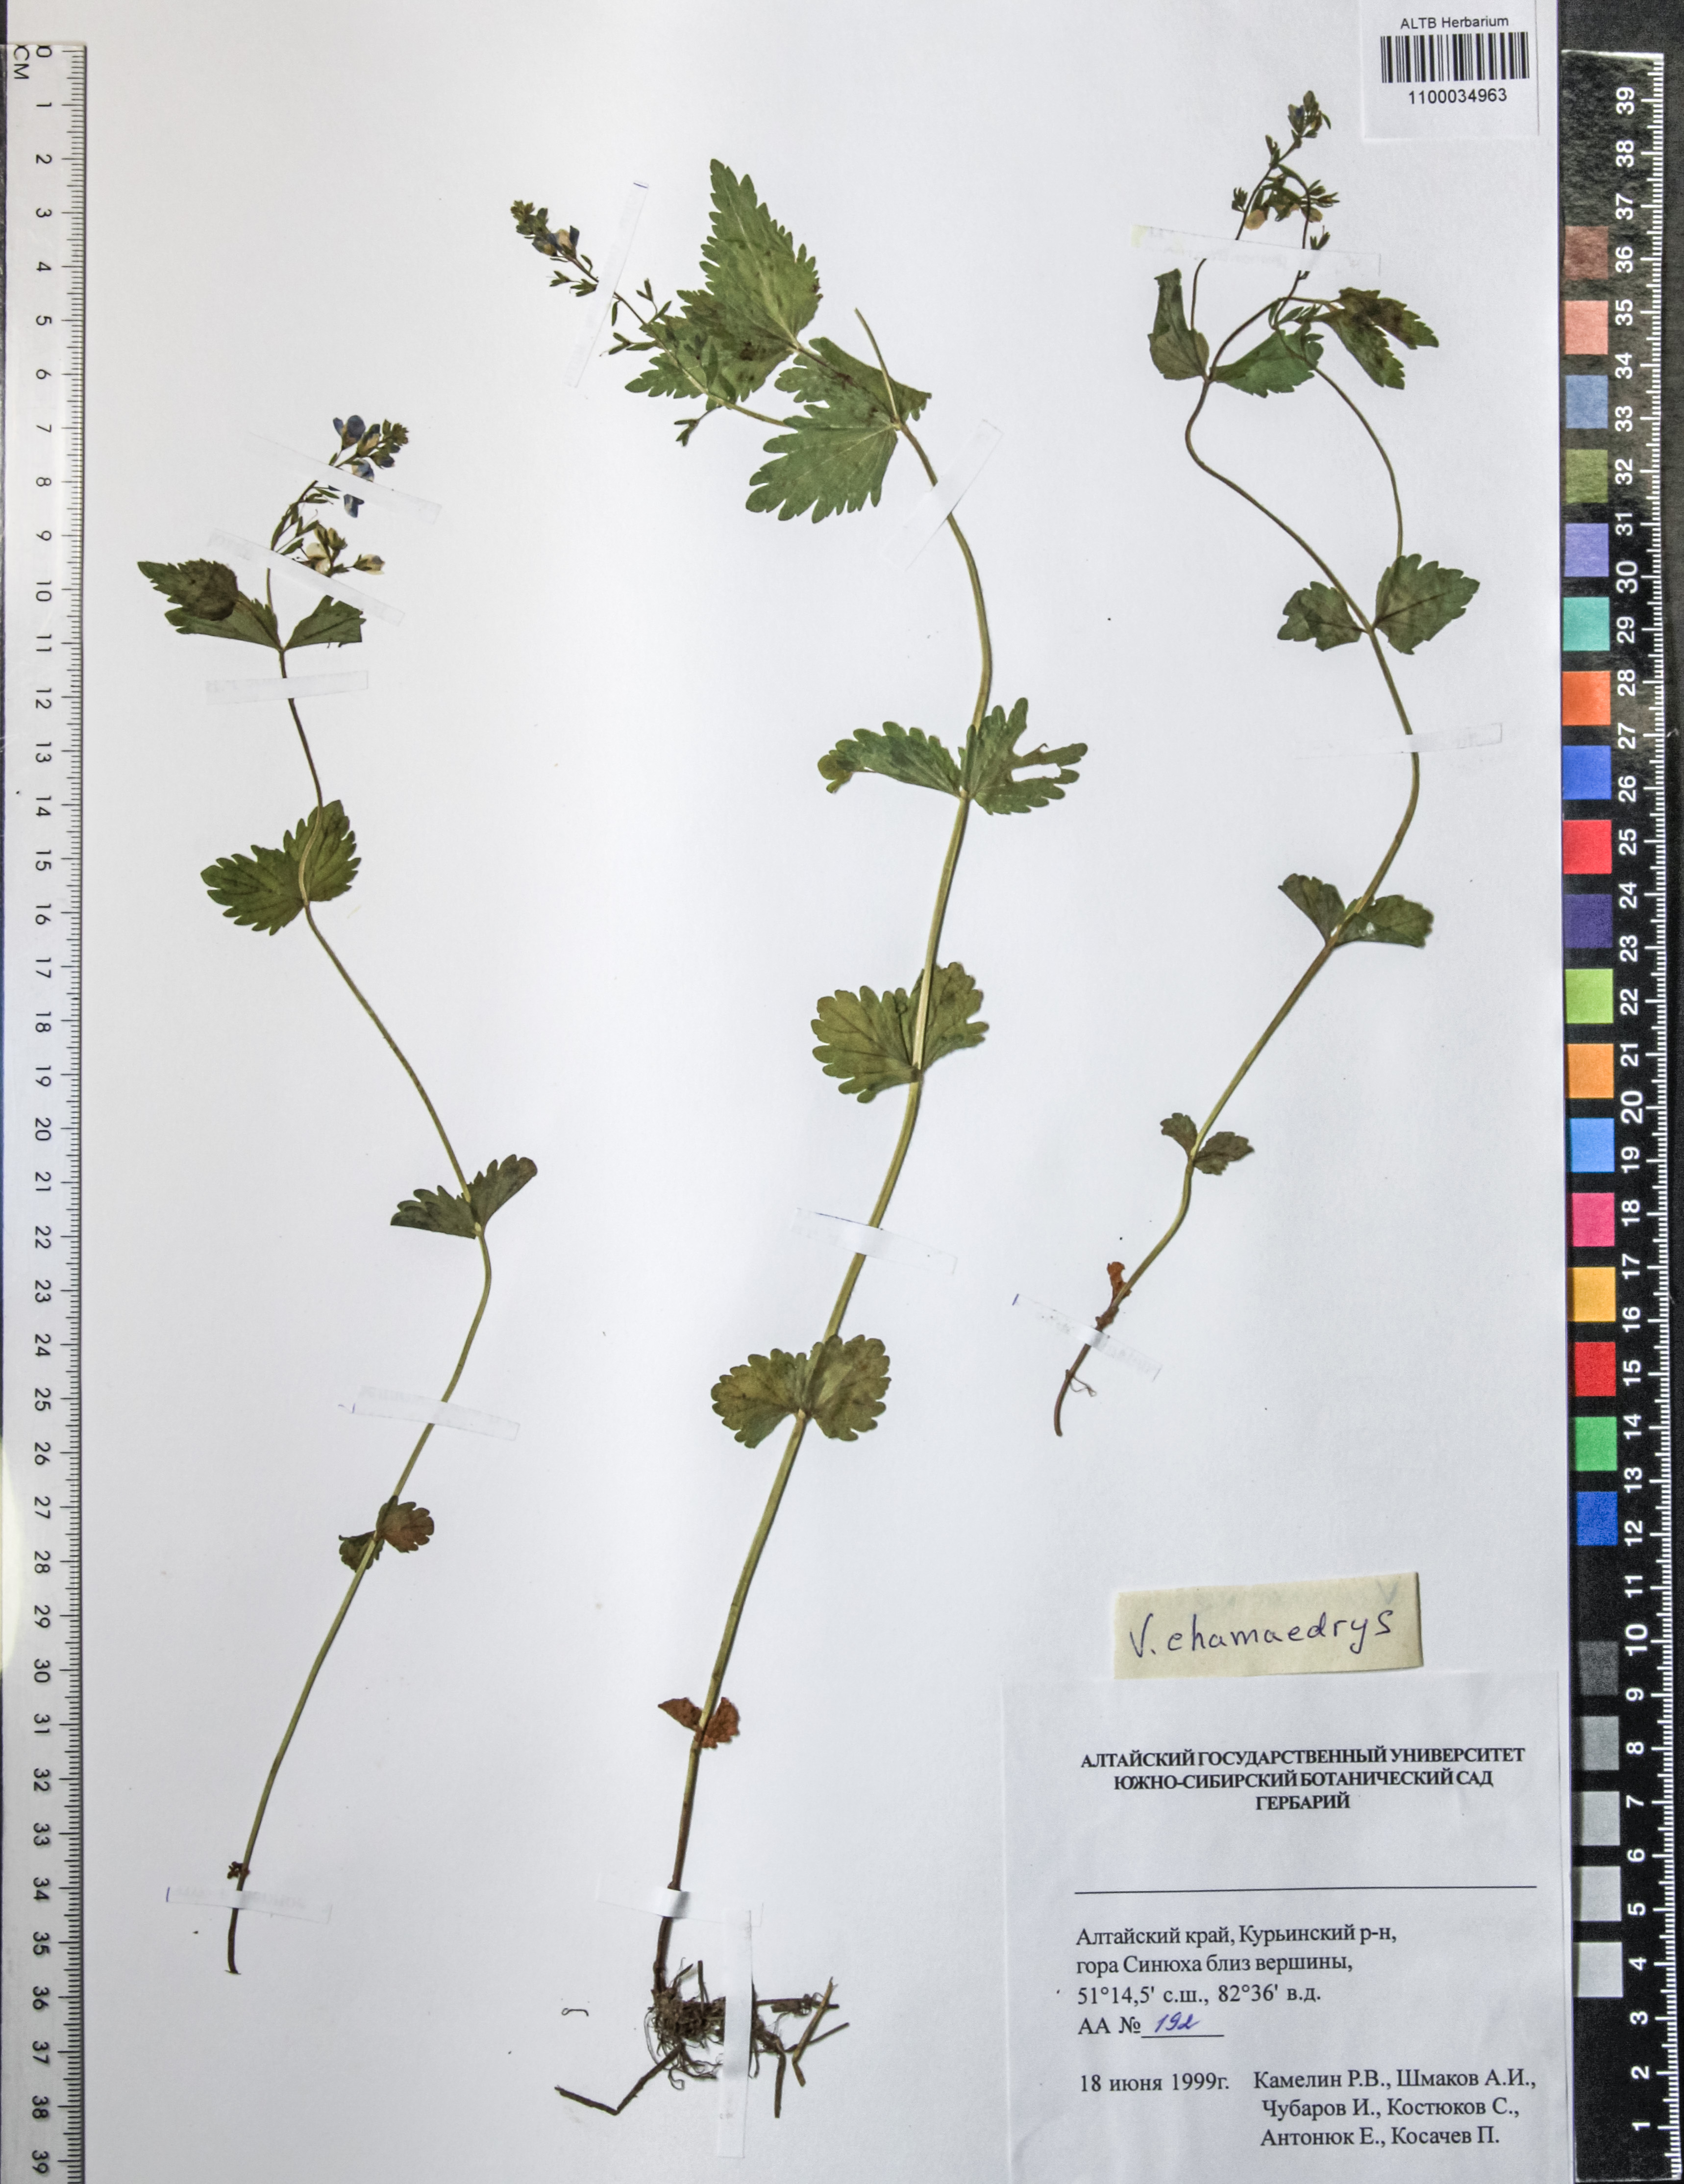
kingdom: Plantae
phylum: Tracheophyta
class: Magnoliopsida
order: Lamiales
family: Plantaginaceae
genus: Veronica
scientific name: Veronica chamaedrys
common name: Germander speedwell
